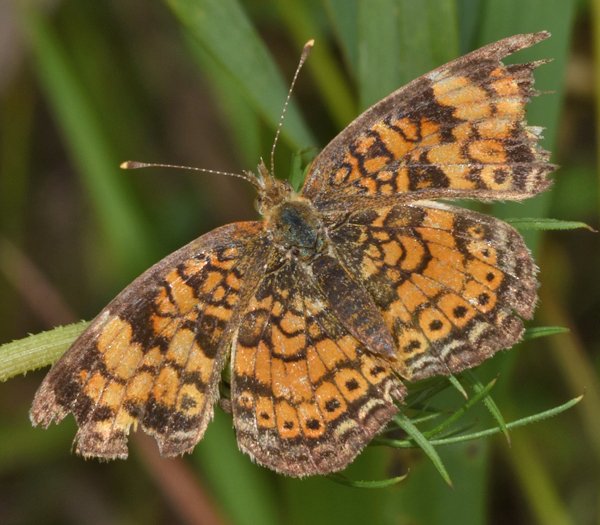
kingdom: Animalia
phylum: Arthropoda
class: Insecta
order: Lepidoptera
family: Nymphalidae
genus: Phyciodes
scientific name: Phyciodes tharos
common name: Northern Crescent
